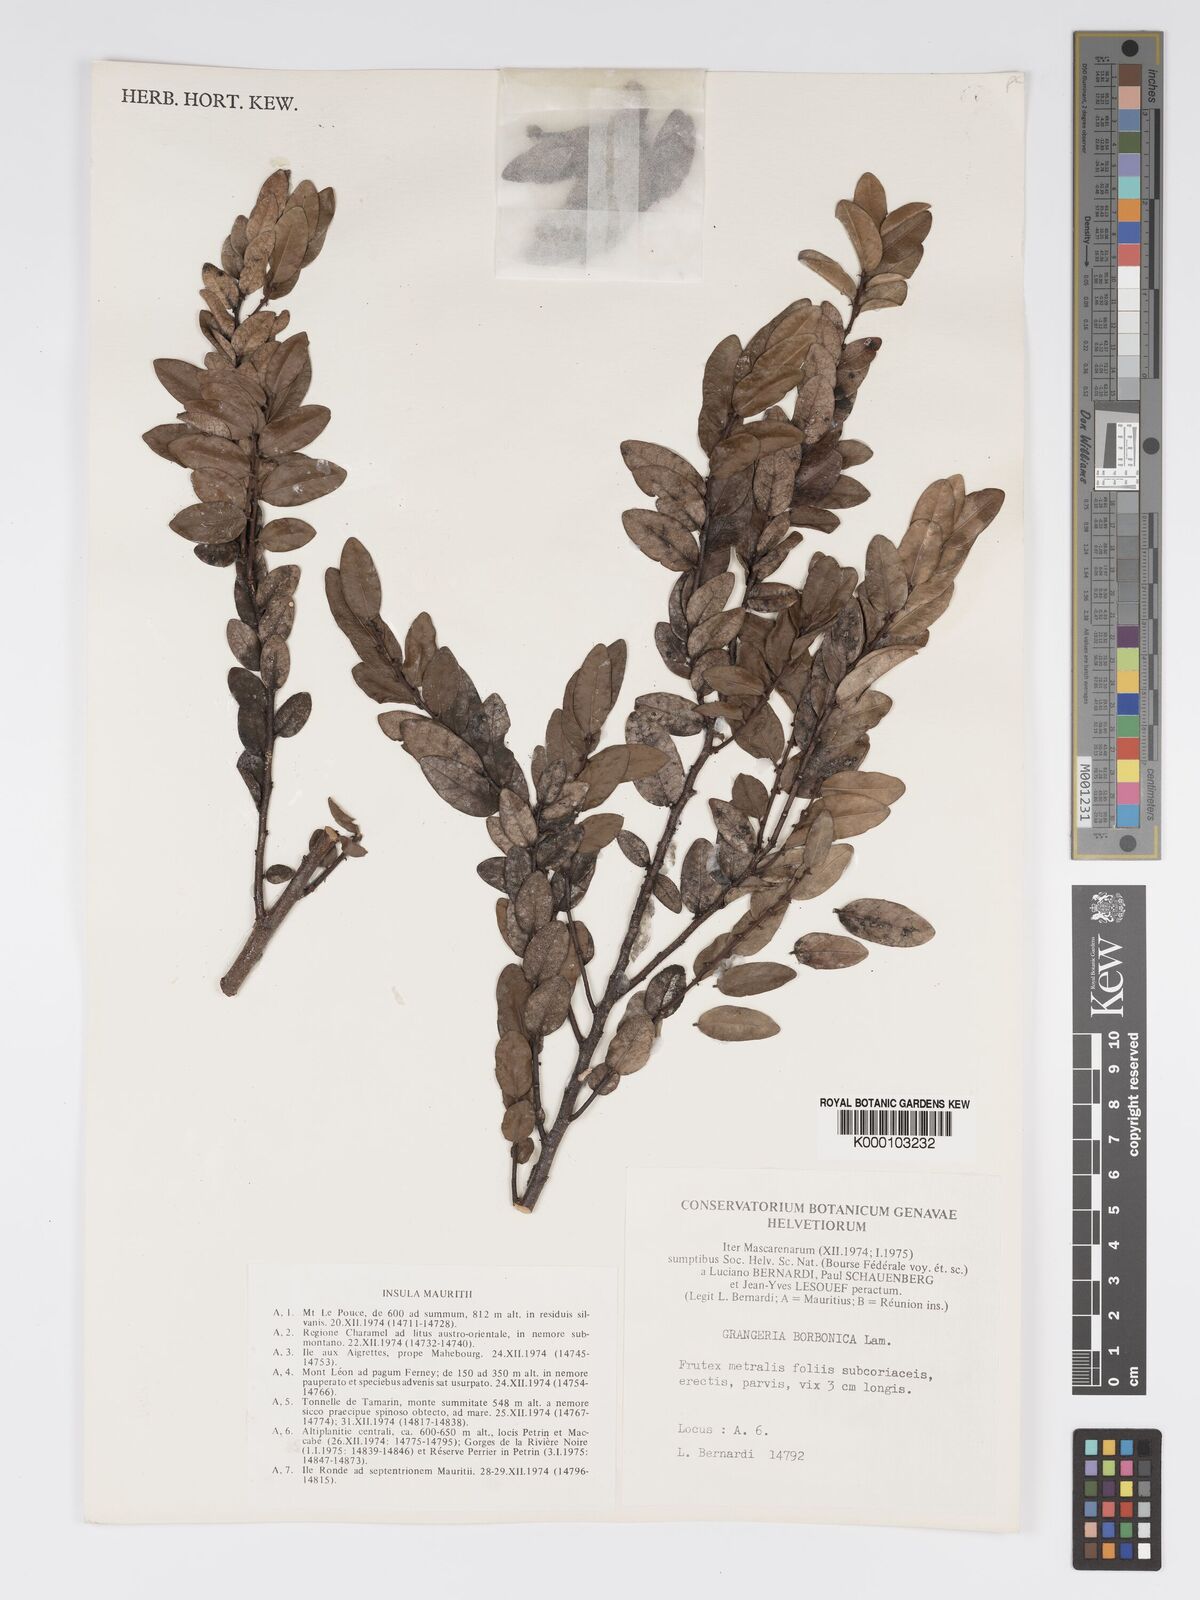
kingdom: Plantae
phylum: Tracheophyta
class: Magnoliopsida
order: Malpighiales
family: Chrysobalanaceae
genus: Grangeria
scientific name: Grangeria borbonica
